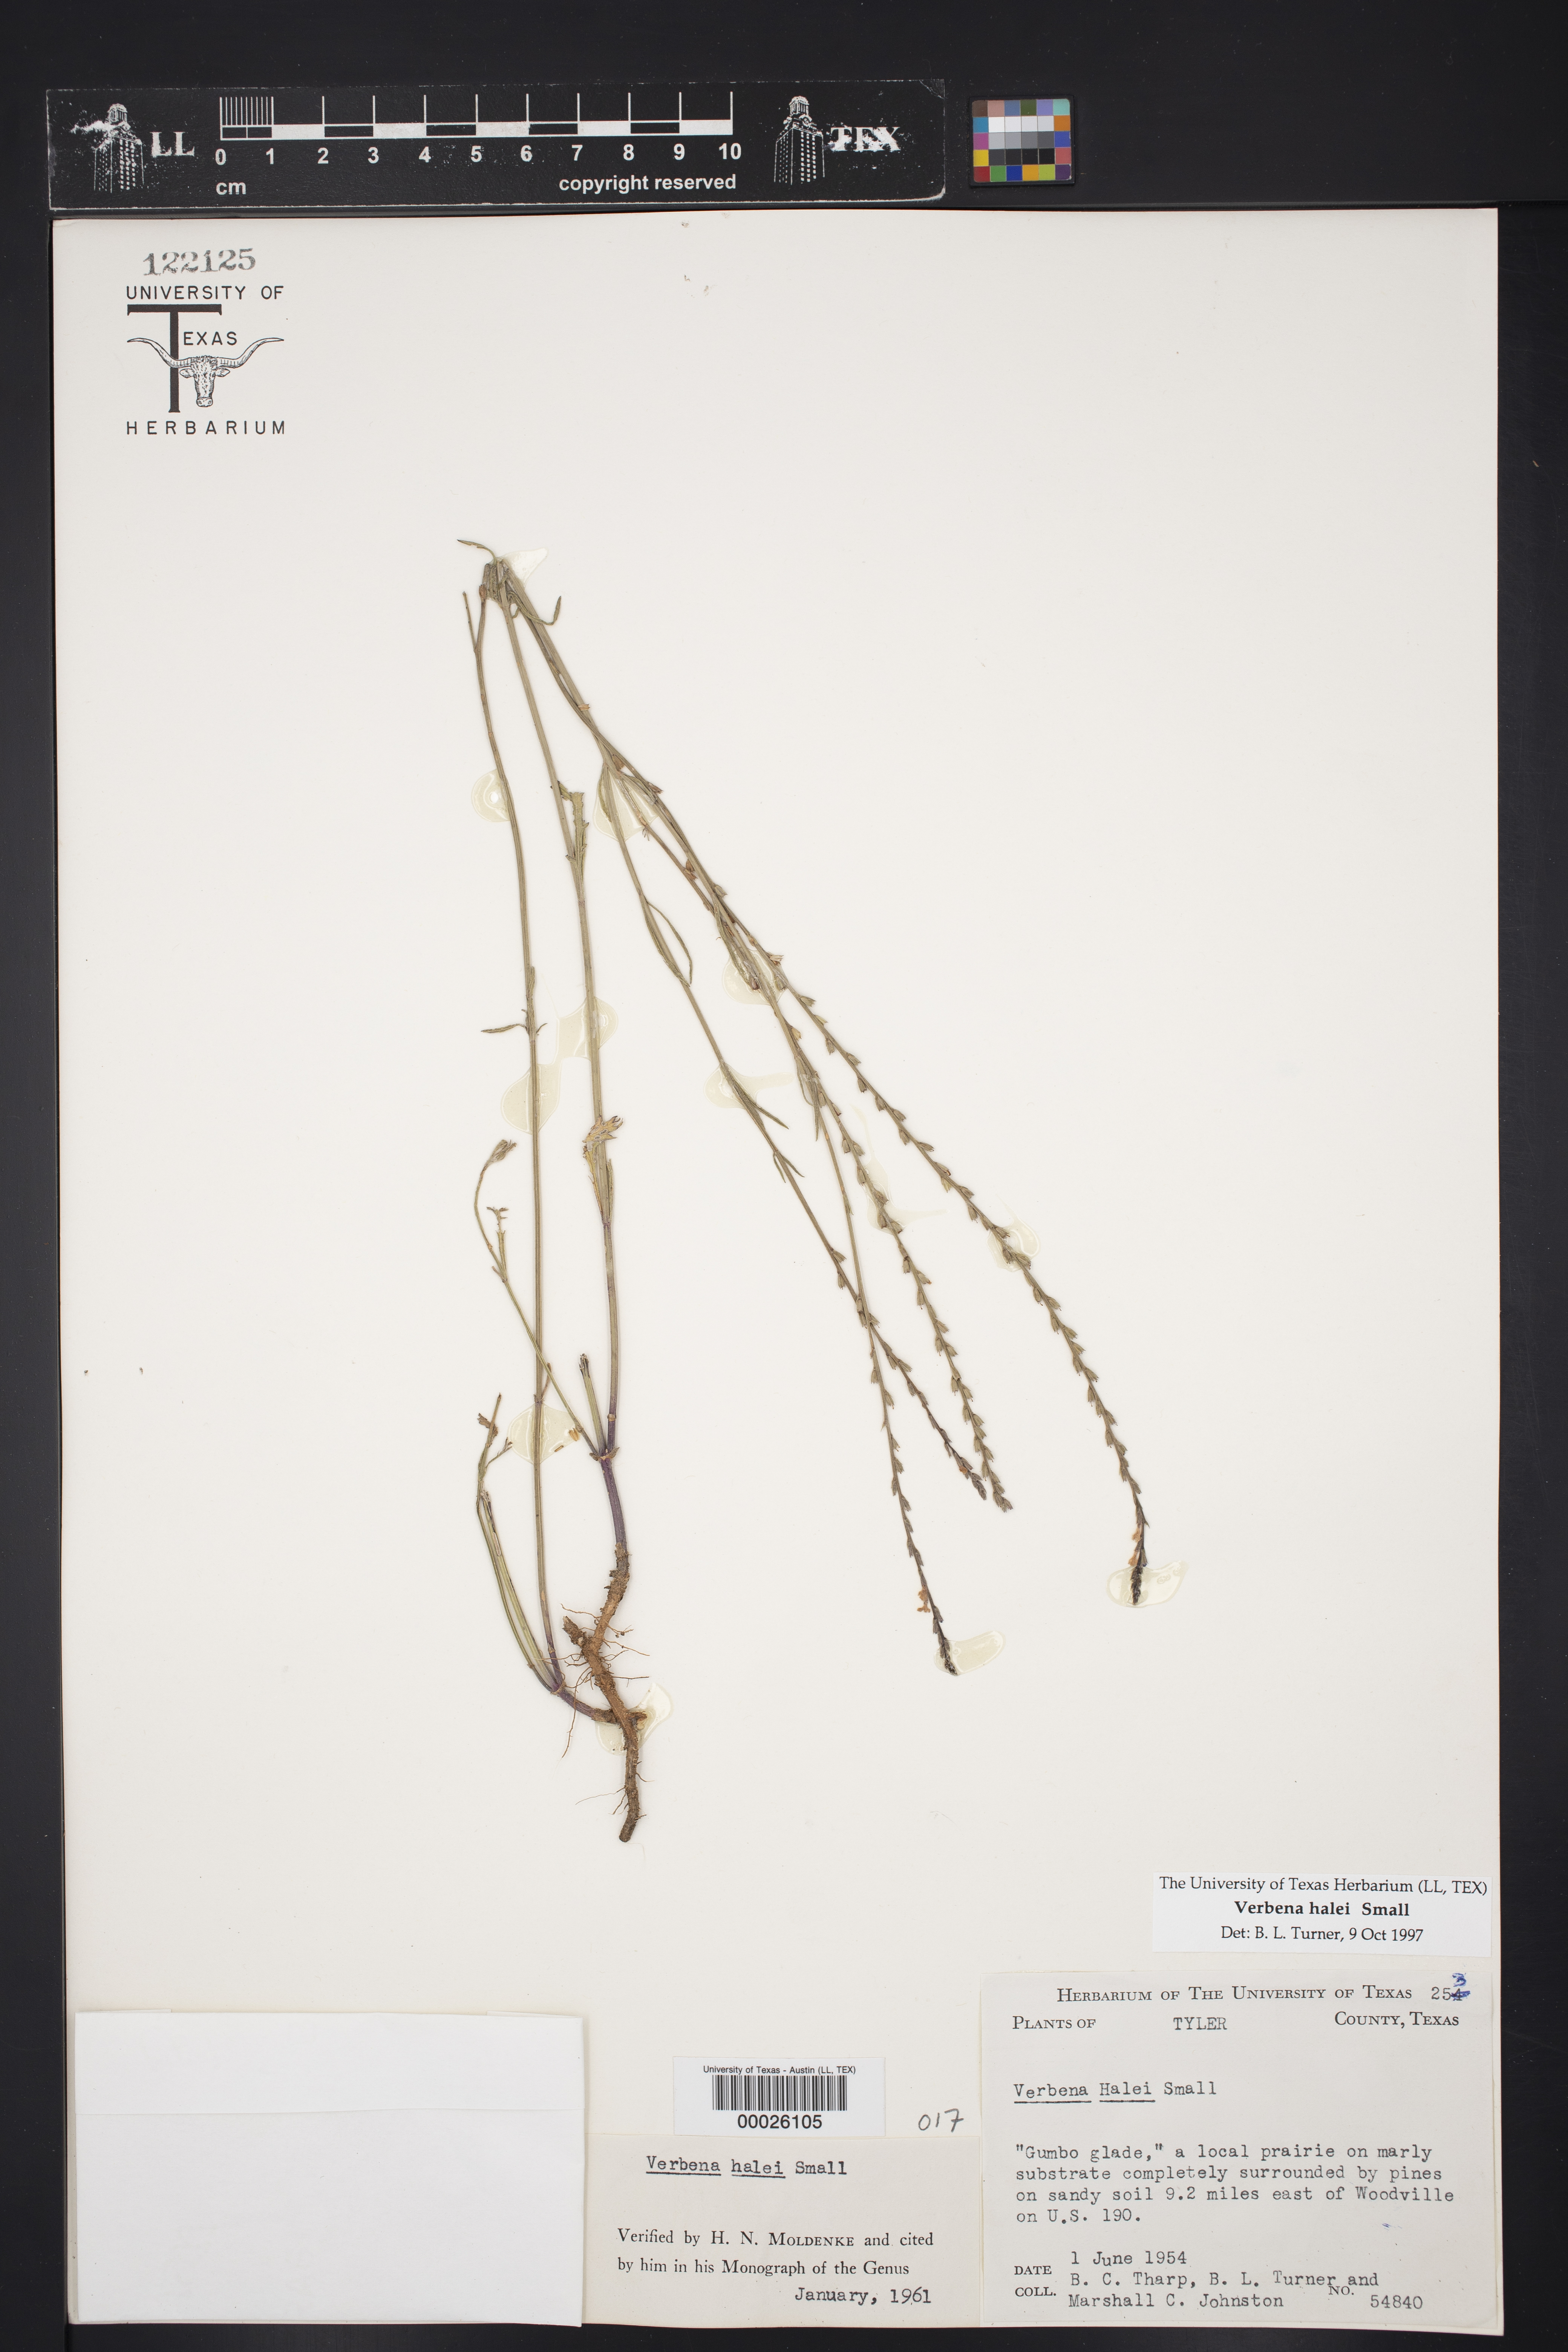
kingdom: Plantae
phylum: Tracheophyta
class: Magnoliopsida
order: Lamiales
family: Verbenaceae
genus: Verbena
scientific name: Verbena halei
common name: Texas vervain
